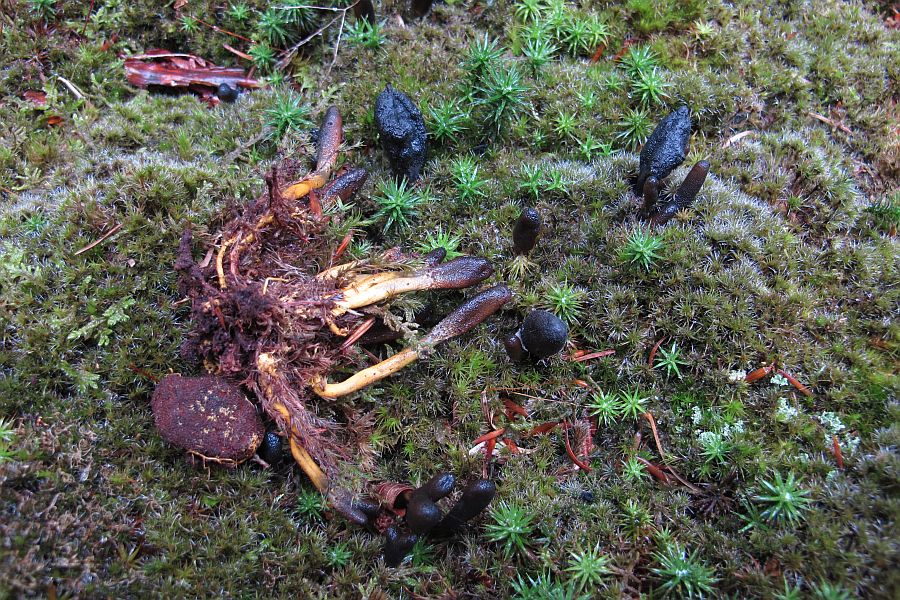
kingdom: Fungi
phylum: Ascomycota
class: Sordariomycetes
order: Hypocreales
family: Ophiocordycipitaceae
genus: Tolypocladium
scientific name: Tolypocladium ophioglossoides
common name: slank snyltekølle
